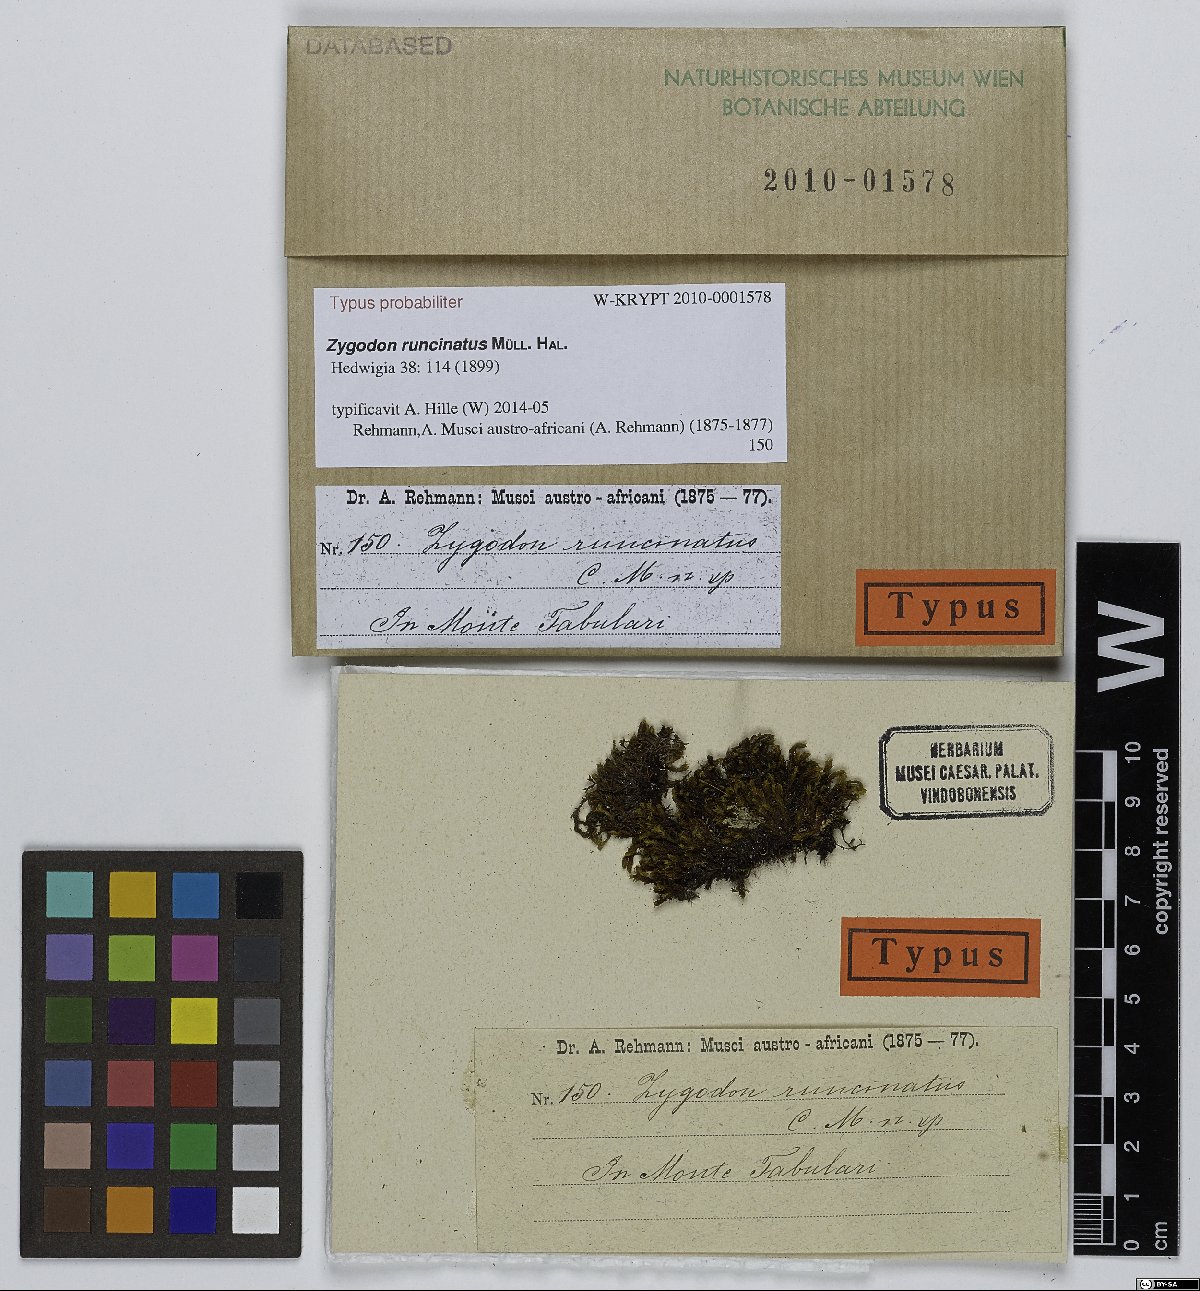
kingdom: Plantae
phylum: Bryophyta
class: Bryopsida
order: Orthotrichales
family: Orthotrichaceae
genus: Zygodon
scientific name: Zygodon runcinatus
